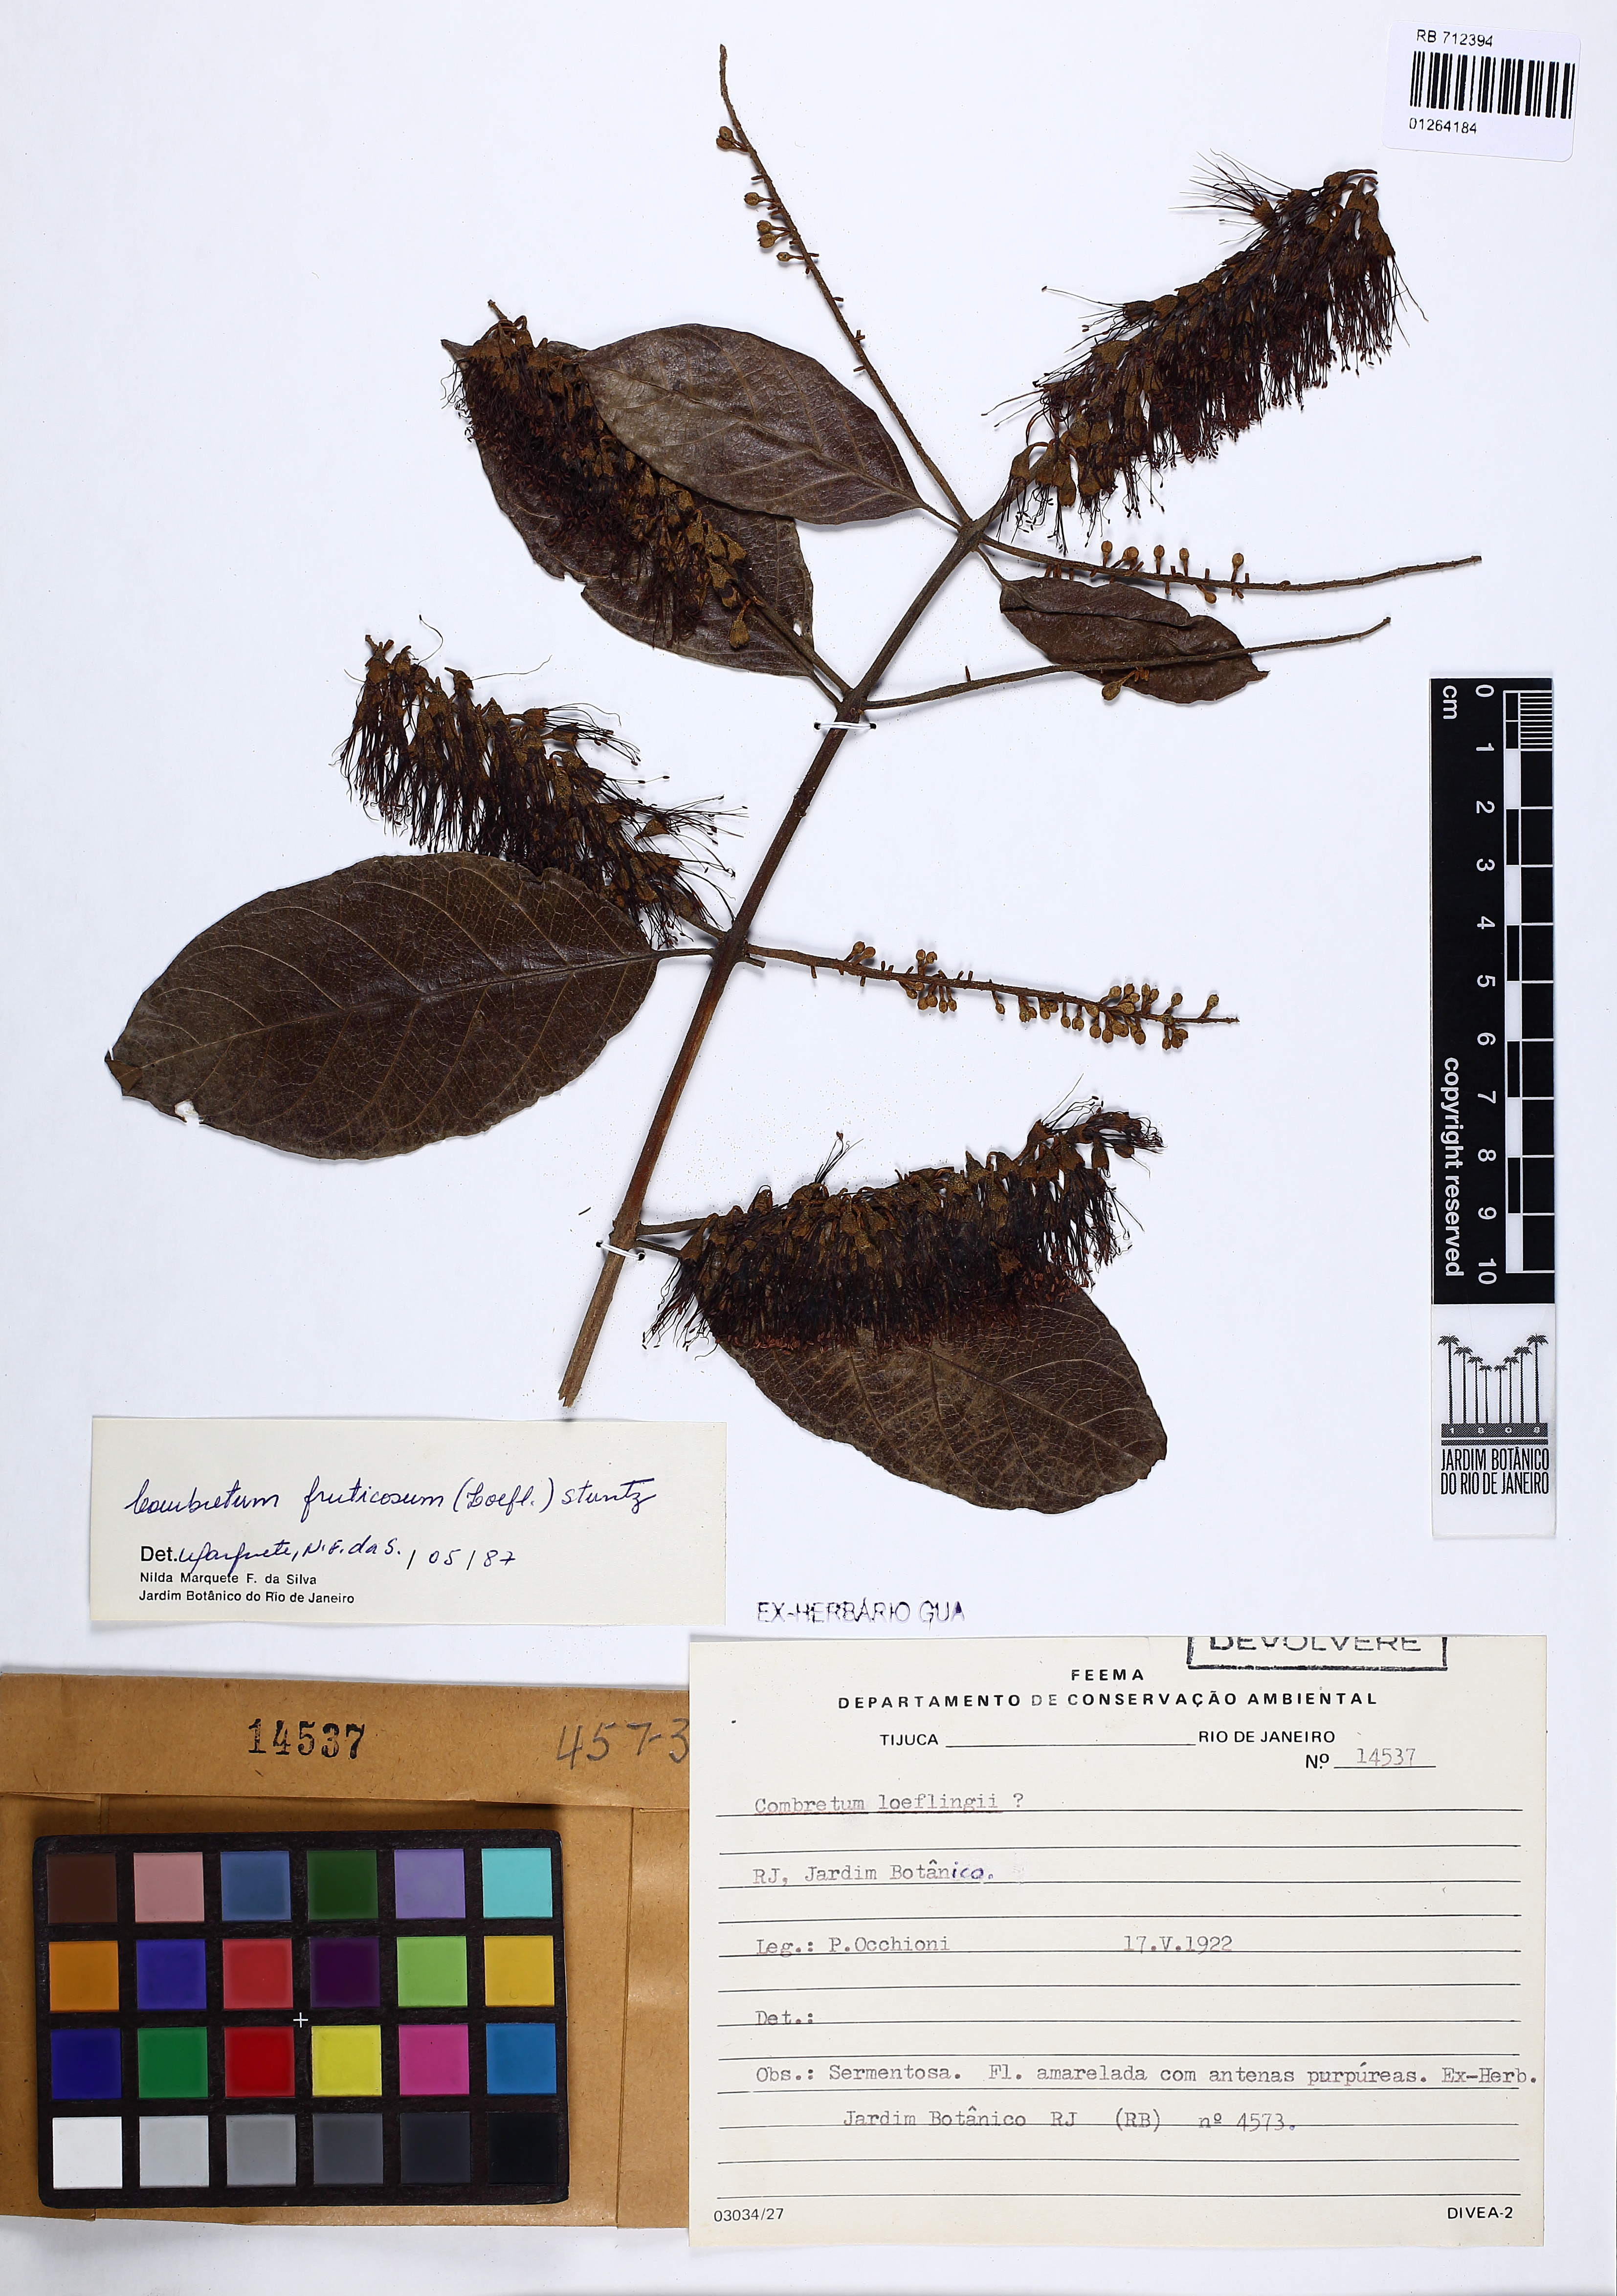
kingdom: Plantae
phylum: Tracheophyta
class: Magnoliopsida
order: Myrtales
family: Combretaceae
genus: Combretum
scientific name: Combretum fruticosum
